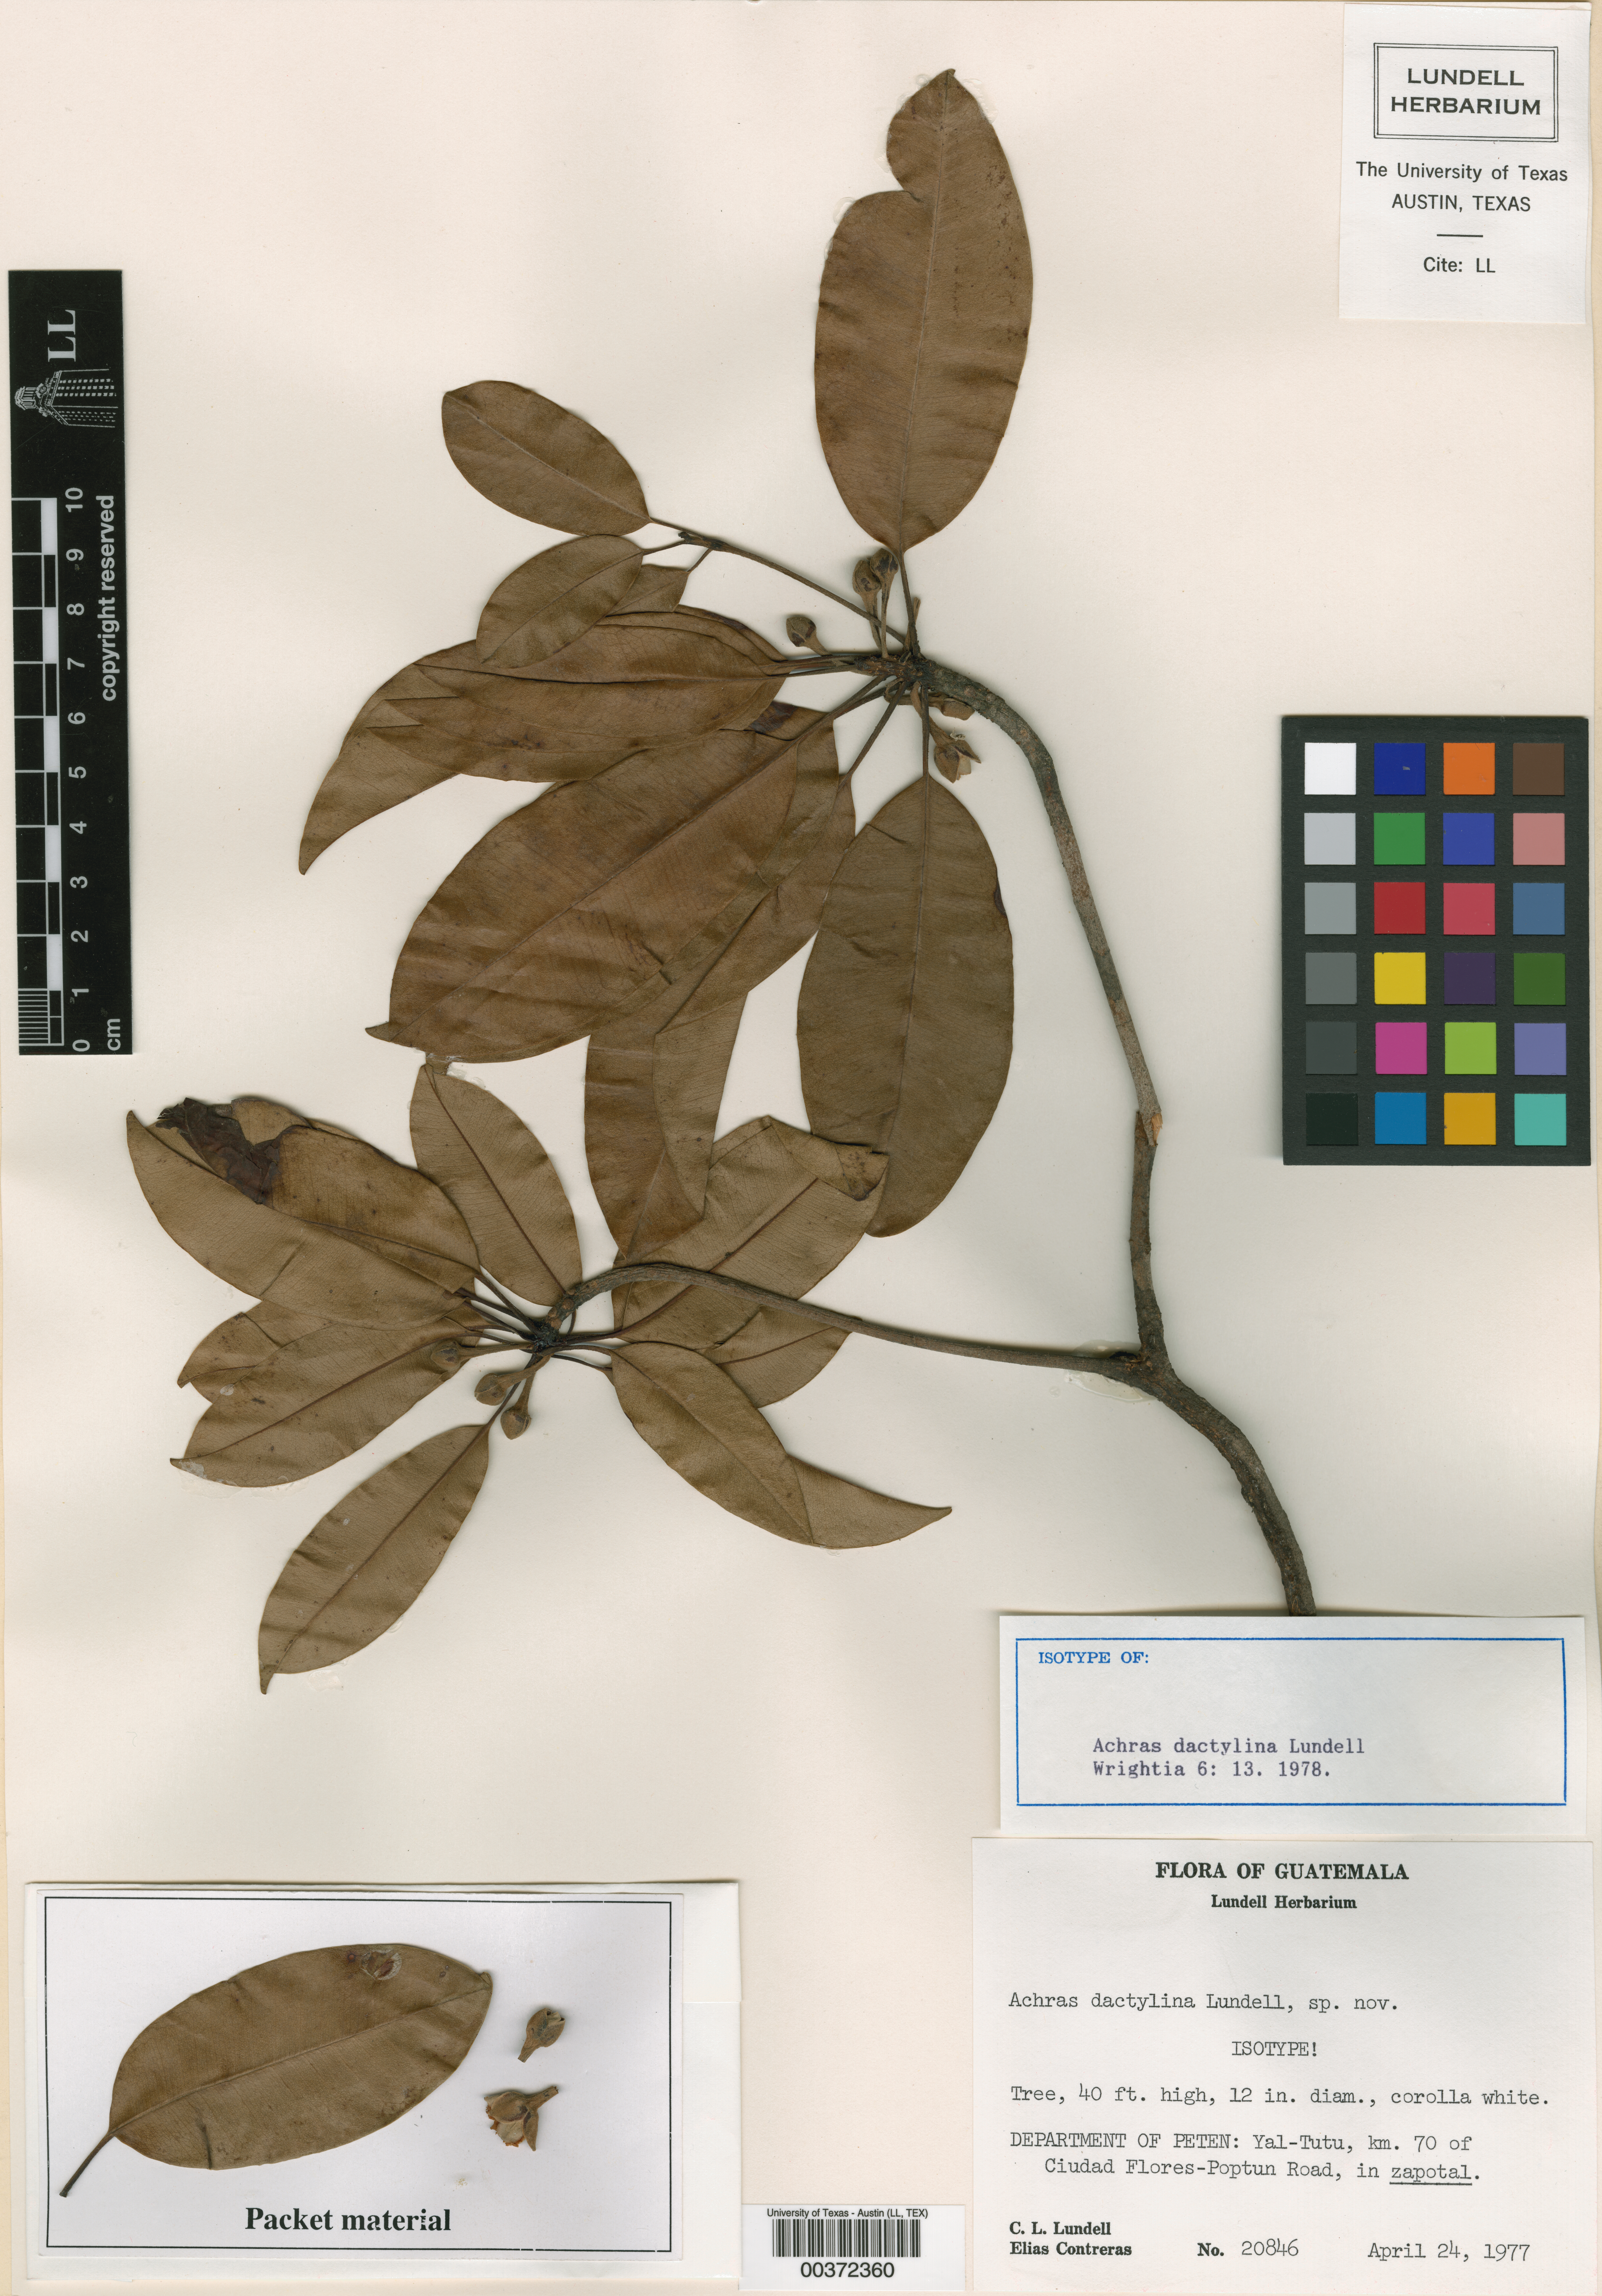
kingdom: Plantae
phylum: Tracheophyta
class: Magnoliopsida
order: Ericales
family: Sapotaceae
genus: Manilkara
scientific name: Manilkara zapota
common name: Sapodilla
